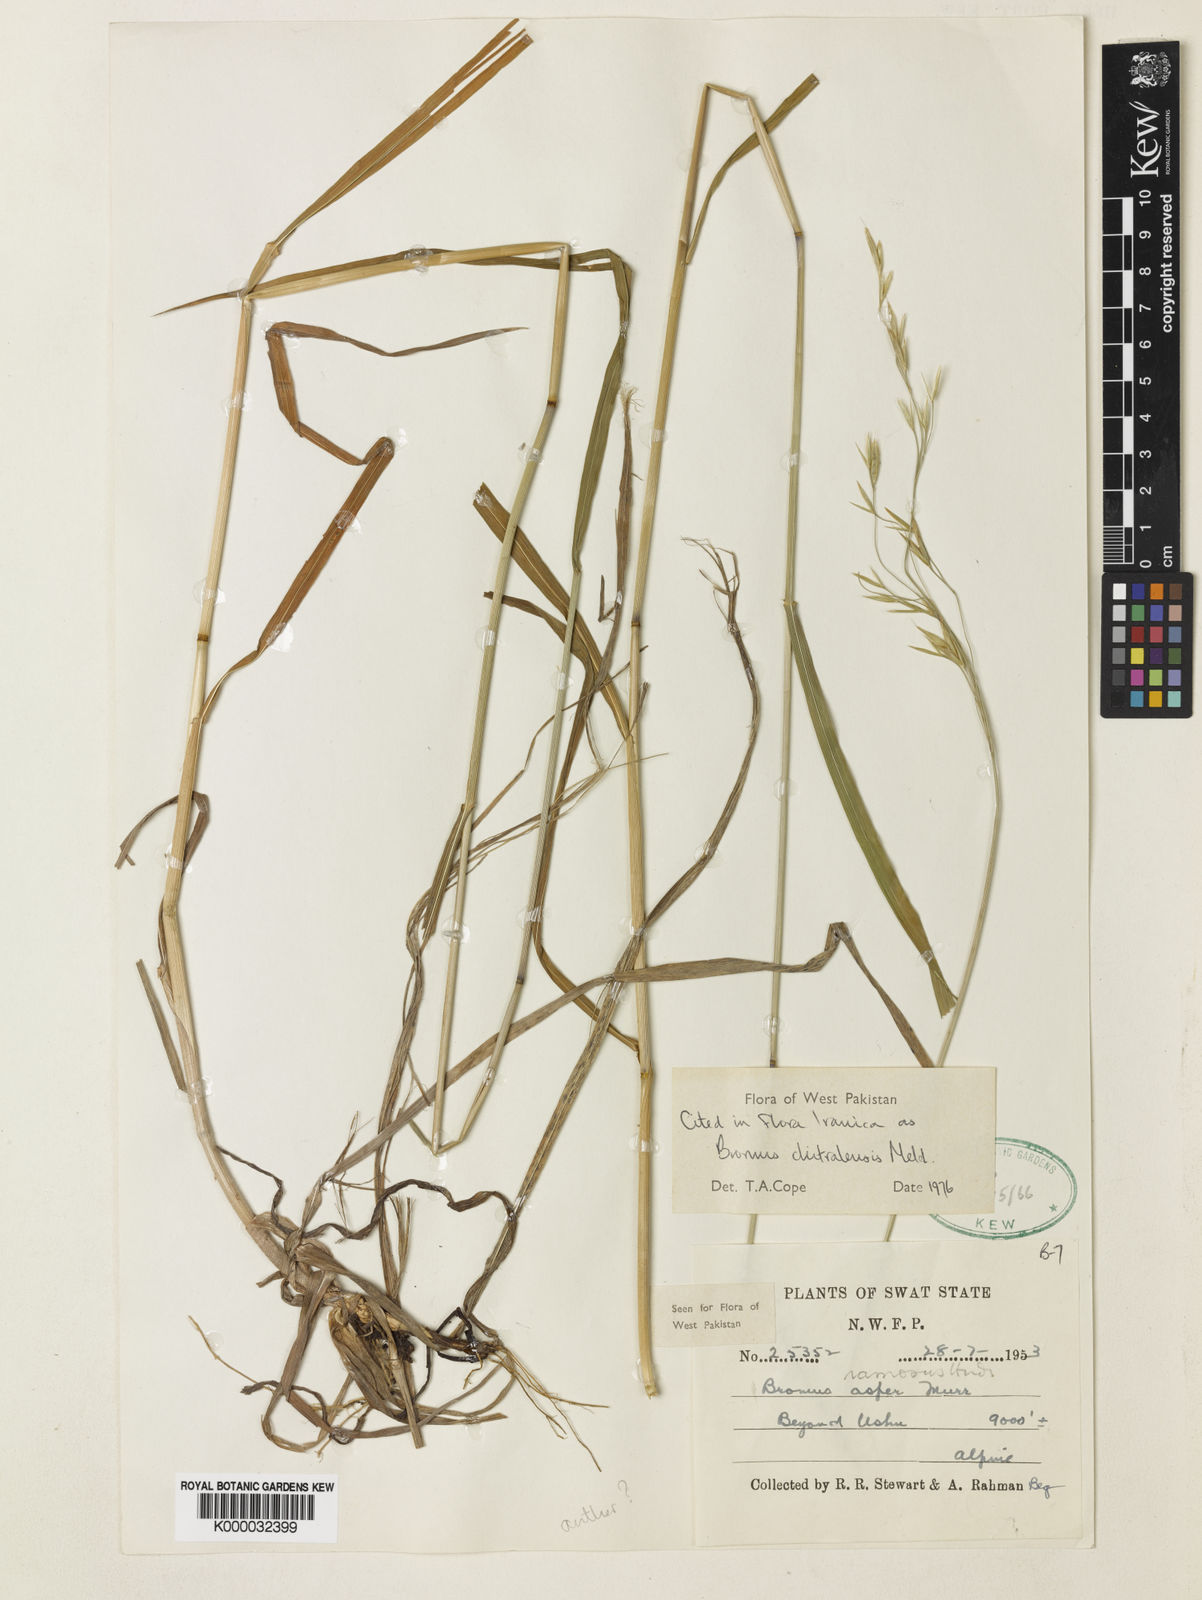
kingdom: Plantae
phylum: Tracheophyta
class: Liliopsida
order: Poales
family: Poaceae
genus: Bromus
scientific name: Bromus ramosus
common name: Hairy brome
